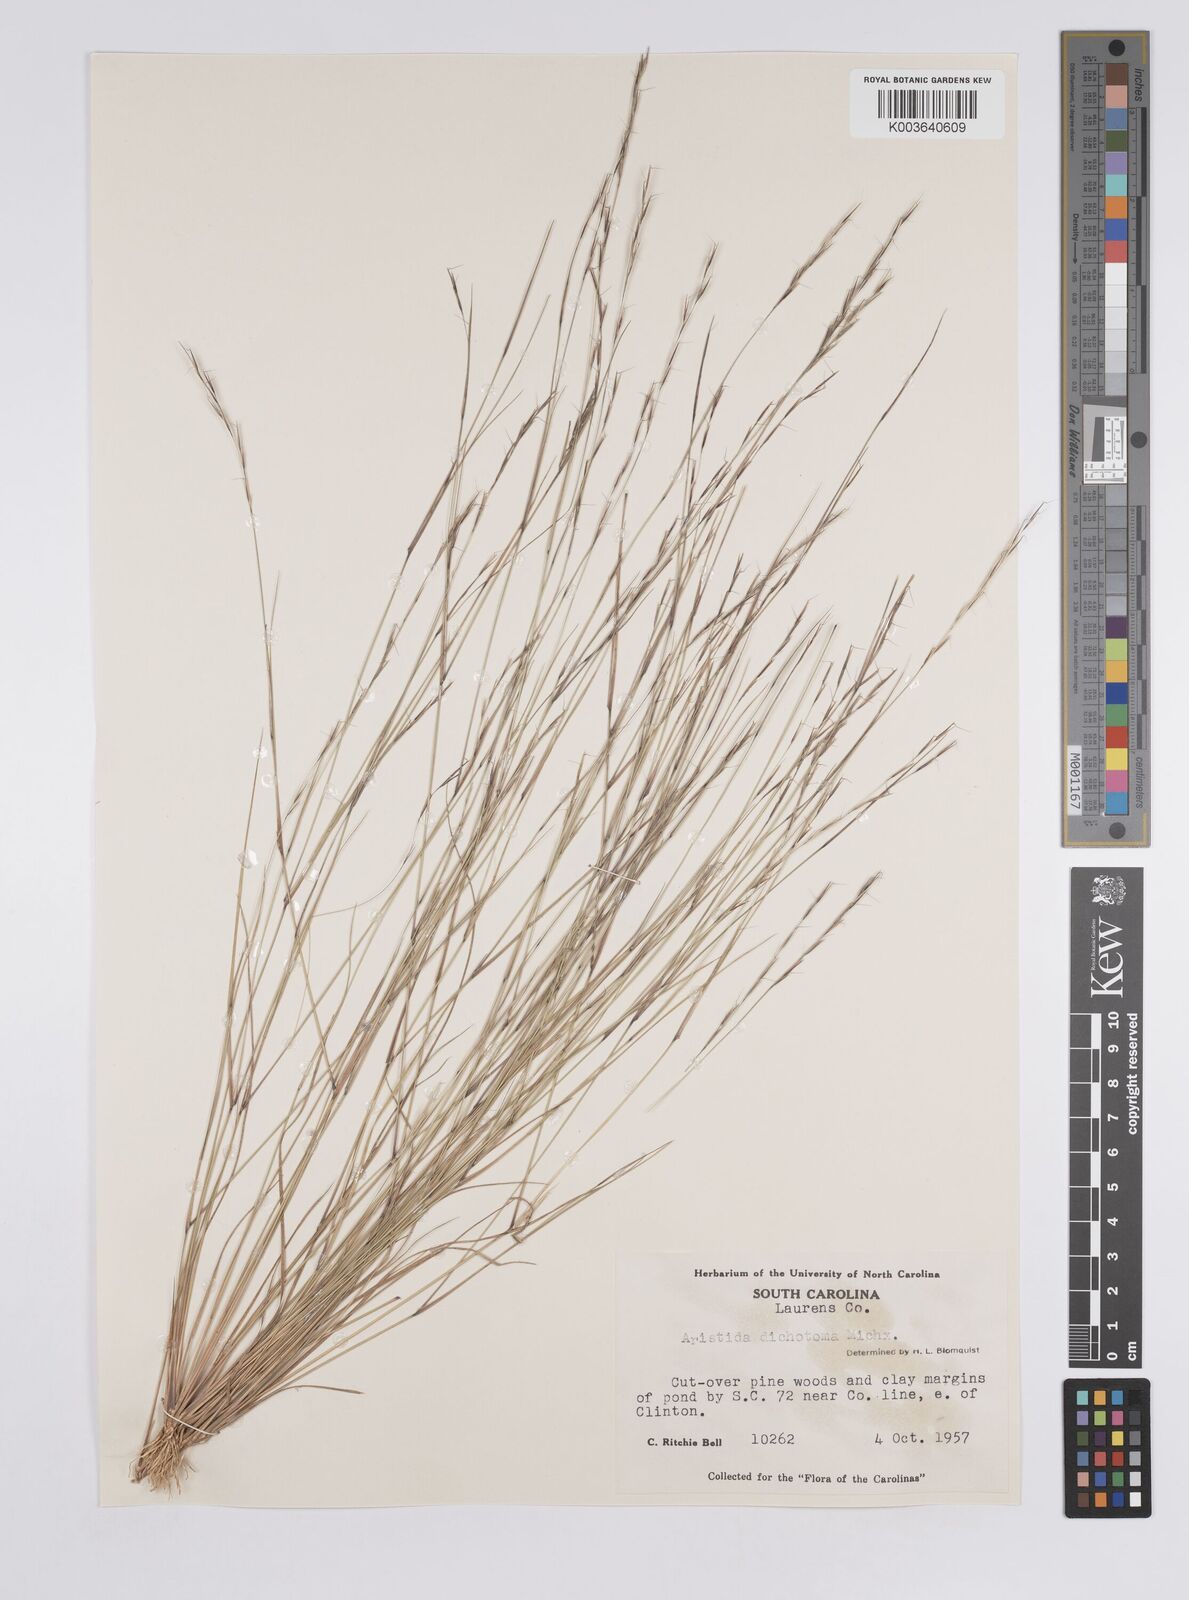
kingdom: Plantae
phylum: Tracheophyta
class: Liliopsida
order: Poales
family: Poaceae
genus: Aristida
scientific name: Aristida dichotoma
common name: Churchmouse three-awn
